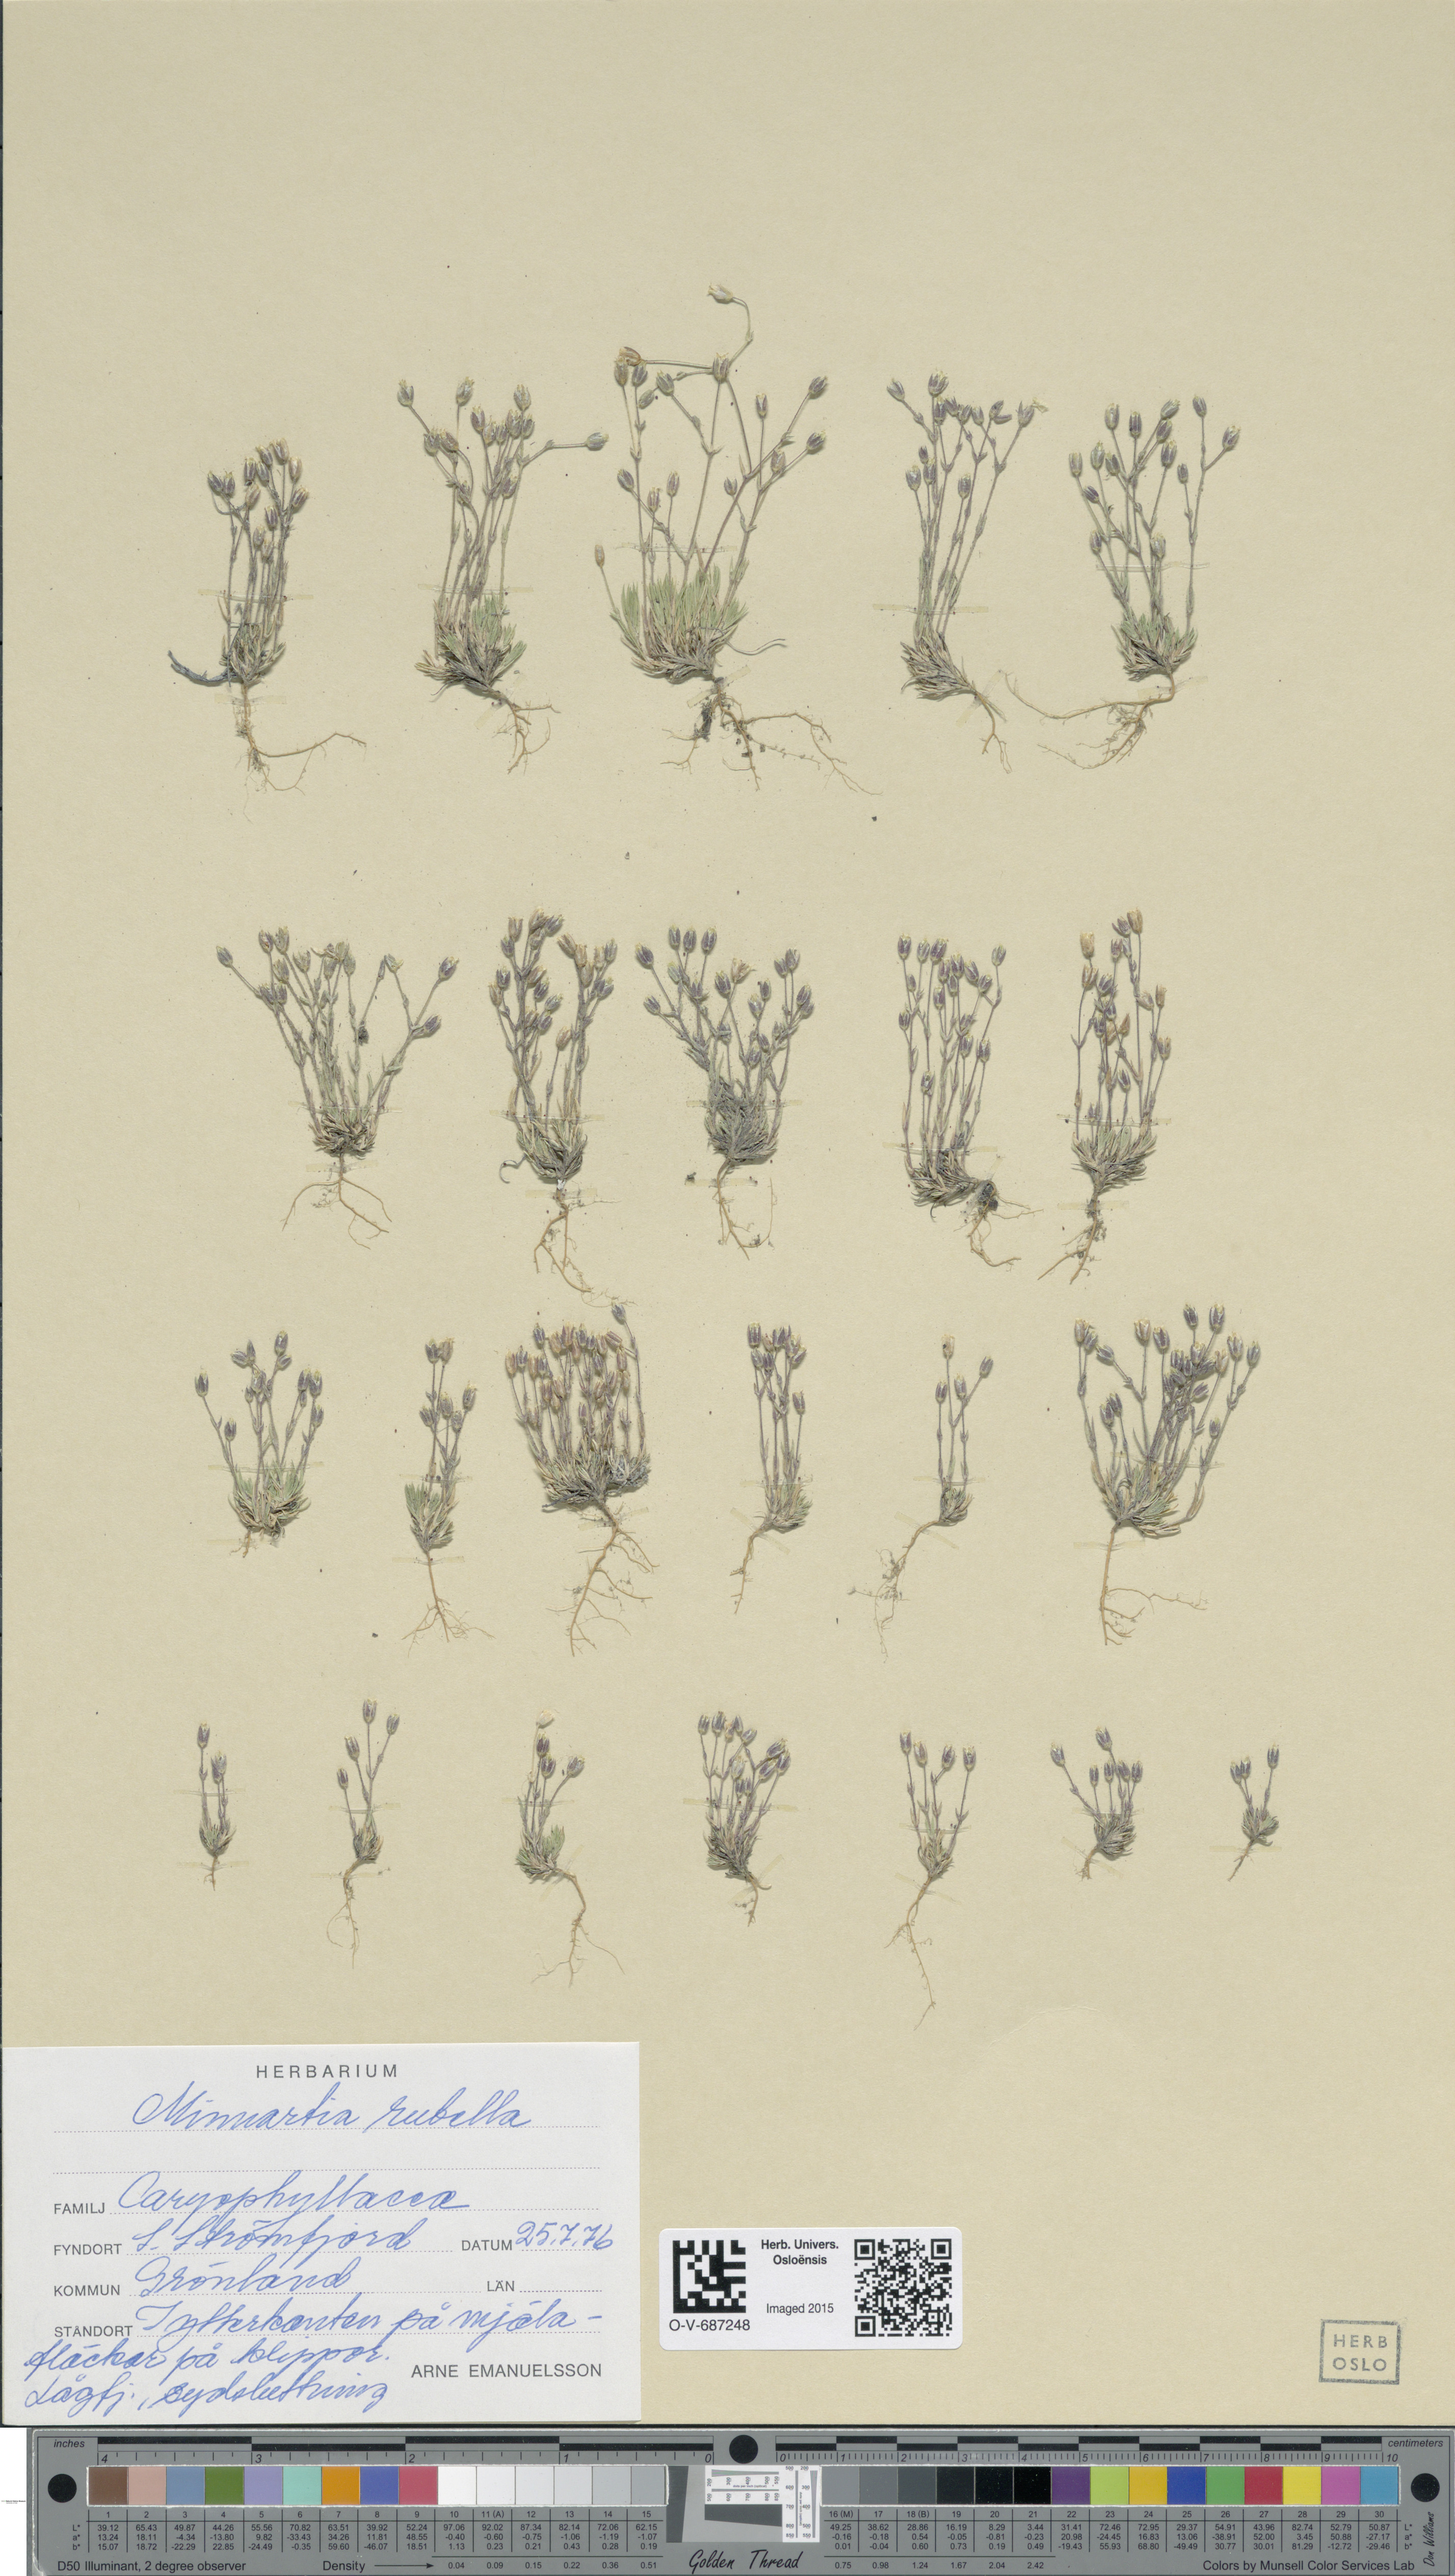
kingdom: Plantae
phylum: Tracheophyta
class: Magnoliopsida
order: Caryophyllales
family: Caryophyllaceae
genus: Sabulina
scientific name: Sabulina rubella
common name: Beautiful sandwort
